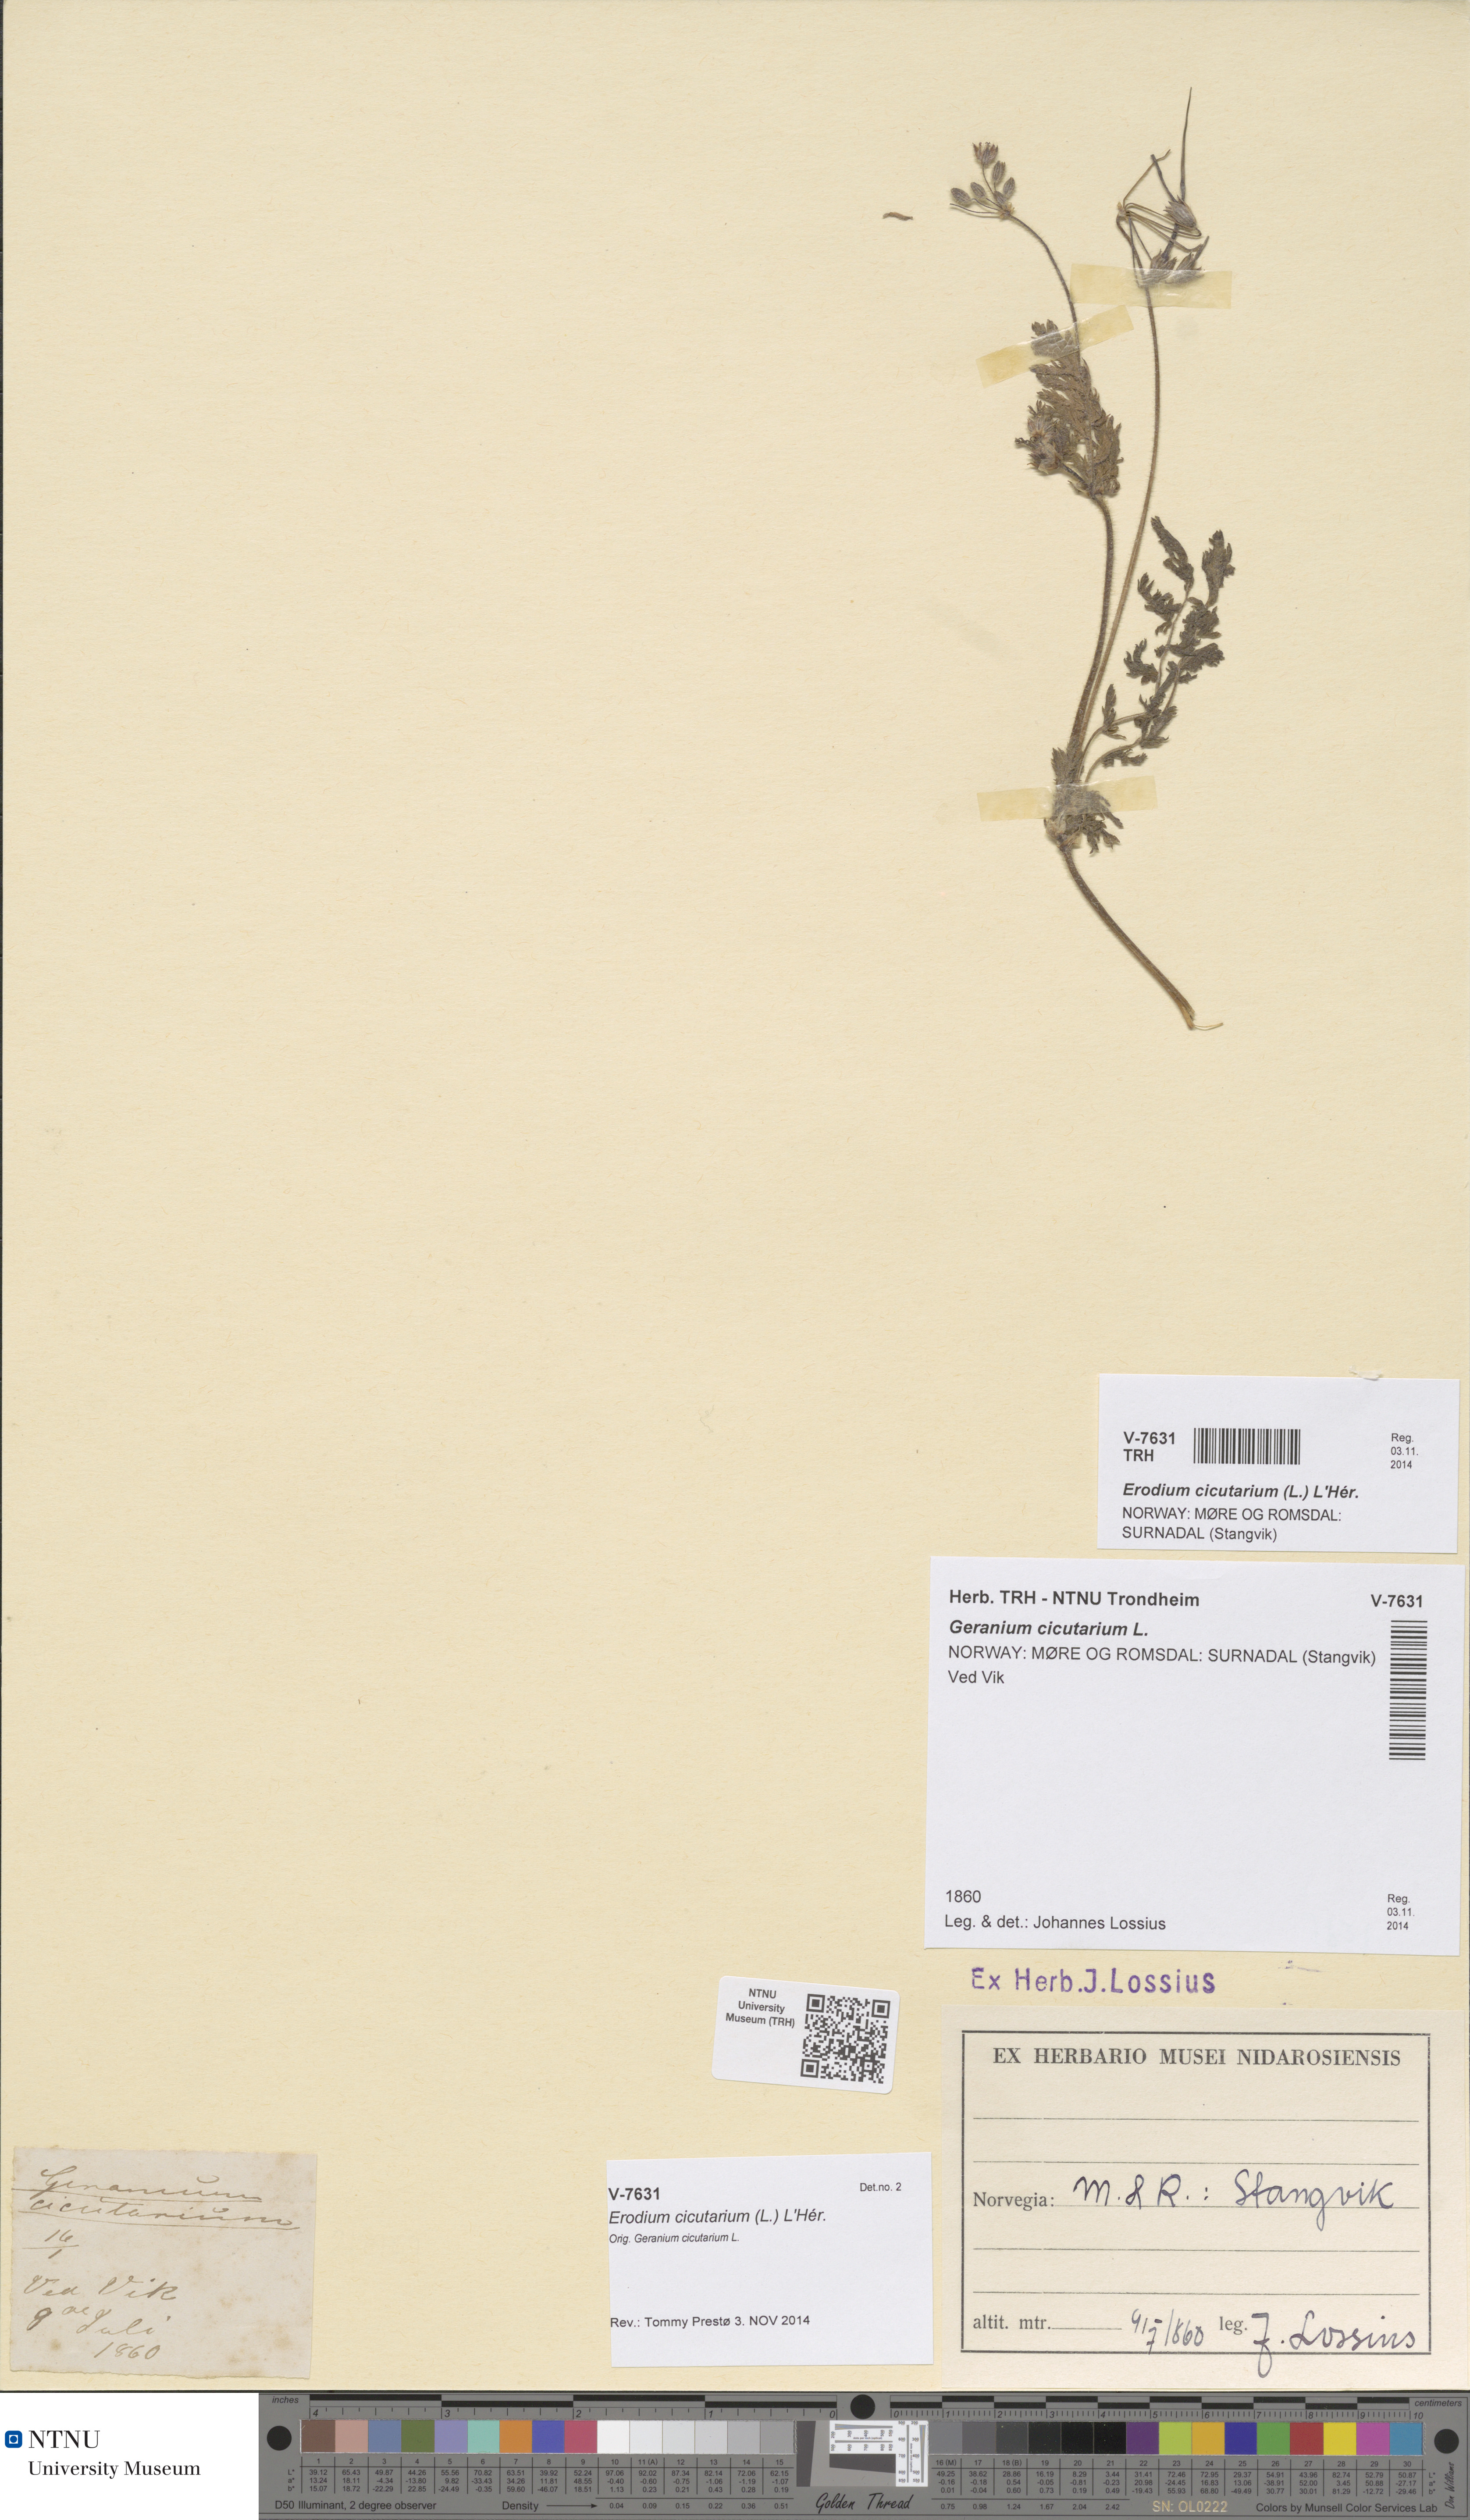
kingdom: Plantae
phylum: Tracheophyta
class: Magnoliopsida
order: Geraniales
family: Geraniaceae
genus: Erodium
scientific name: Erodium cicutarium
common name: Common stork's-bill
